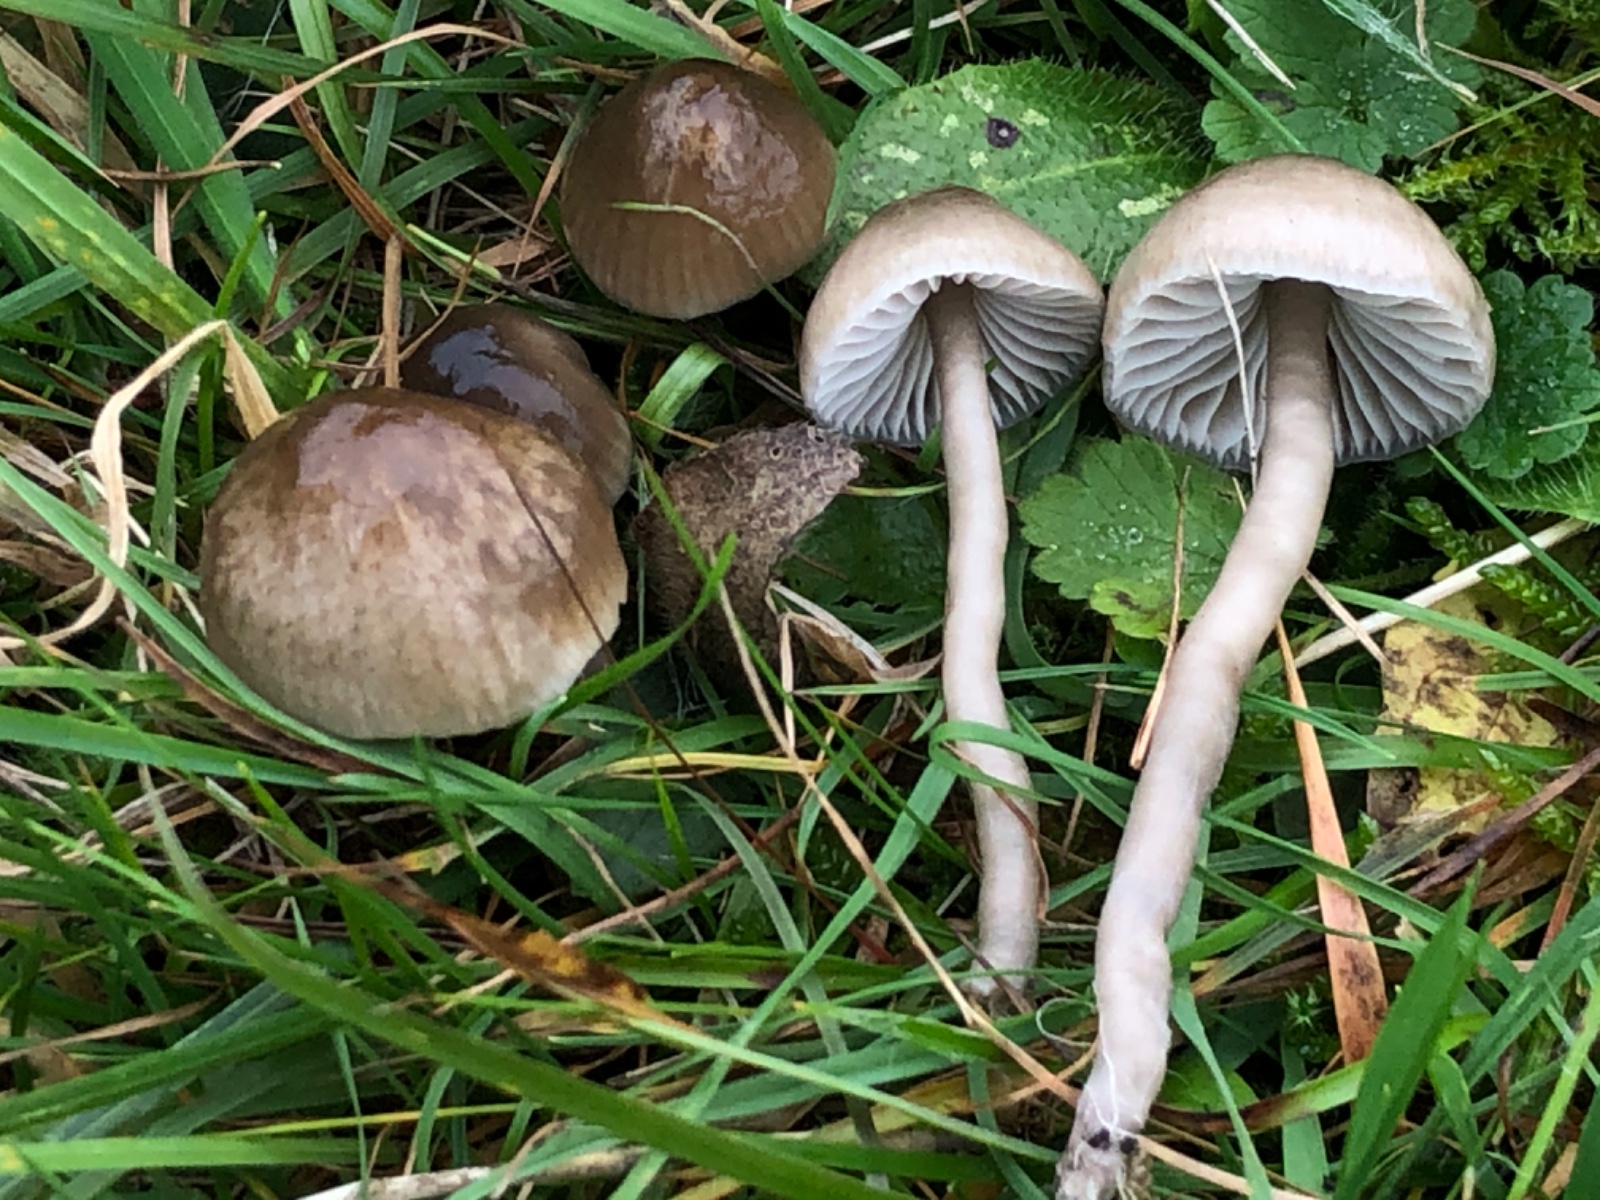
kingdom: Fungi
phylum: Basidiomycota
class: Agaricomycetes
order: Agaricales
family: Hygrophoraceae
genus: Gliophorus
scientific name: Gliophorus irrigatus
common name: slimet vokshat
